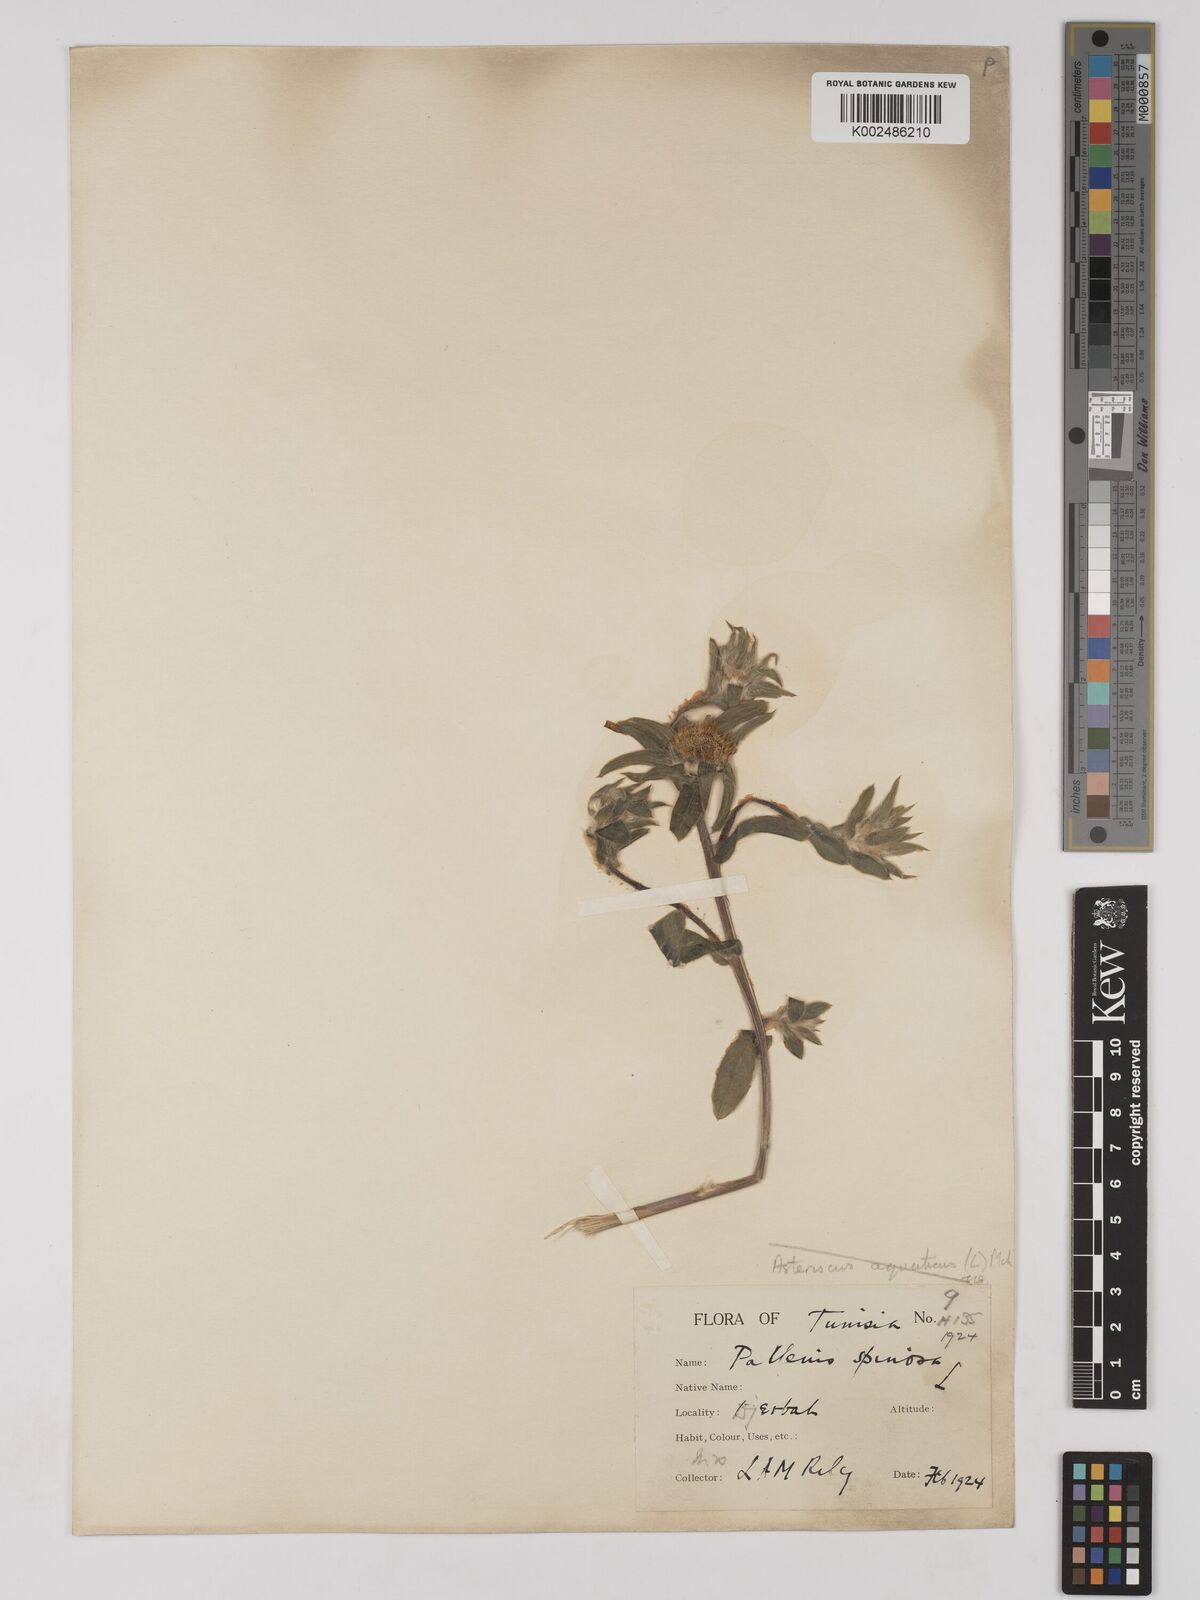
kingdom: Plantae
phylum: Tracheophyta
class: Magnoliopsida
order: Asterales
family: Asteraceae
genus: Pallenis
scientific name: Pallenis spinosa
